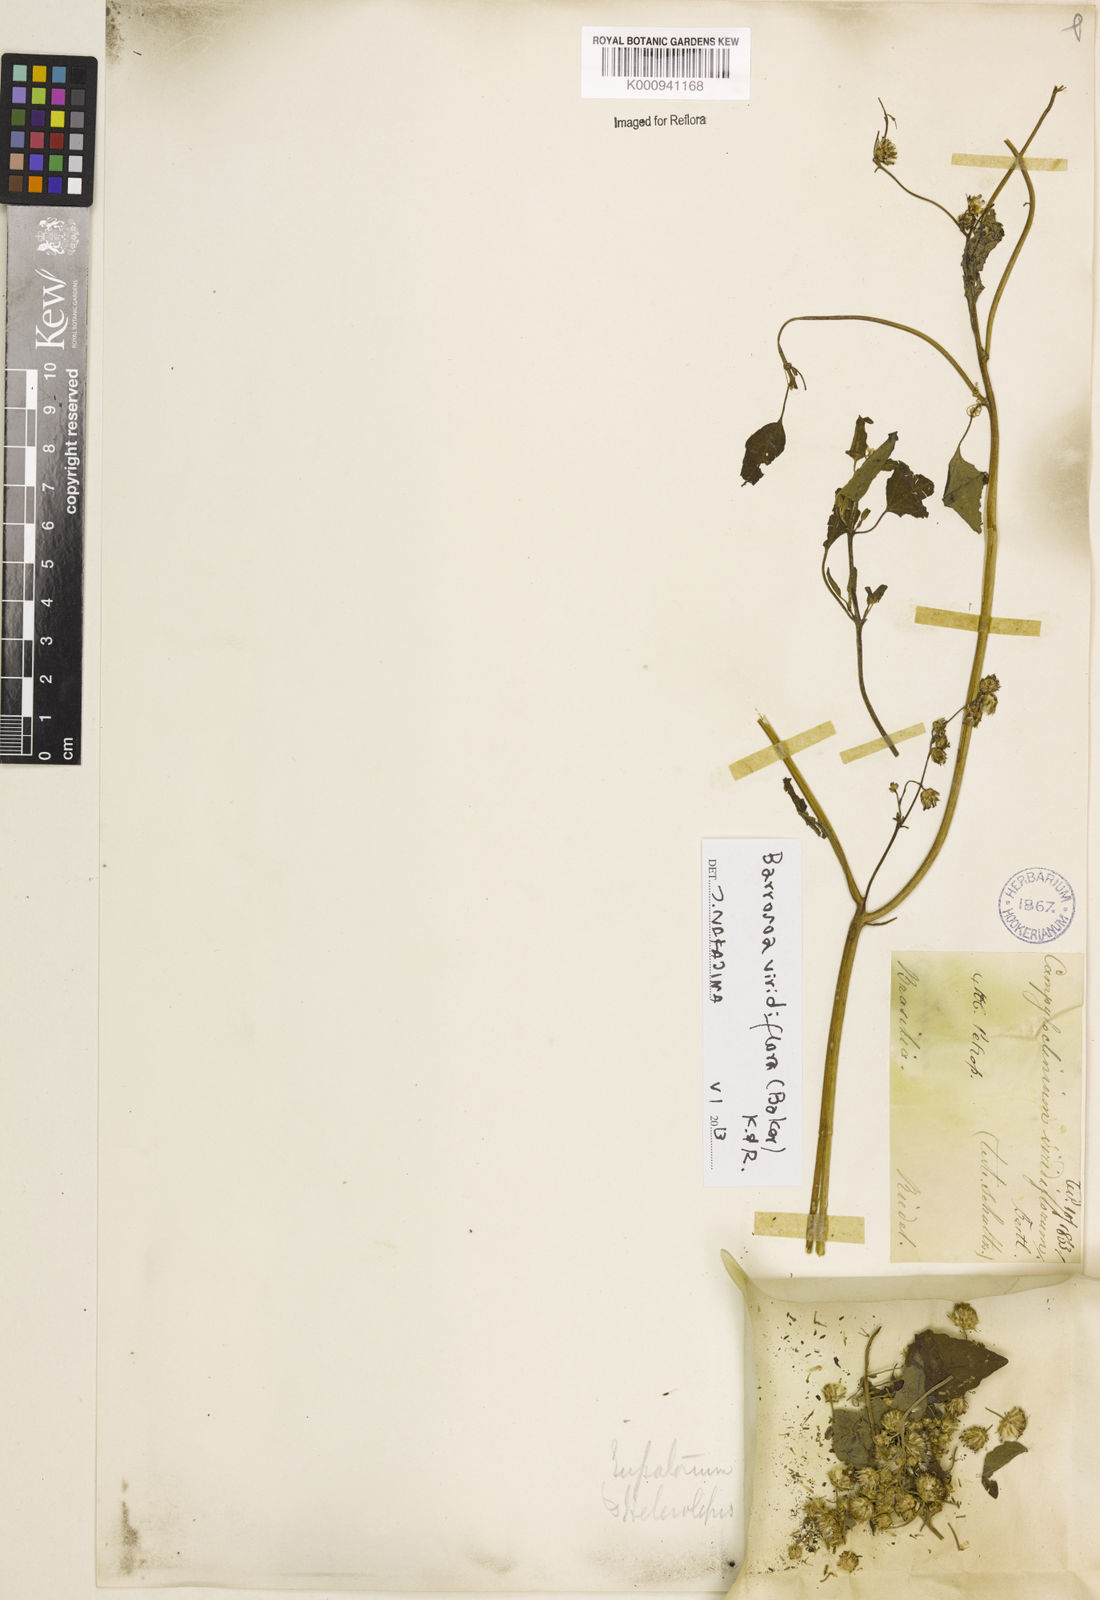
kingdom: Plantae
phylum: Tracheophyta
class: Magnoliopsida
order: Asterales
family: Asteraceae
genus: Bartlettina
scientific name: Bartlettina conspicua
